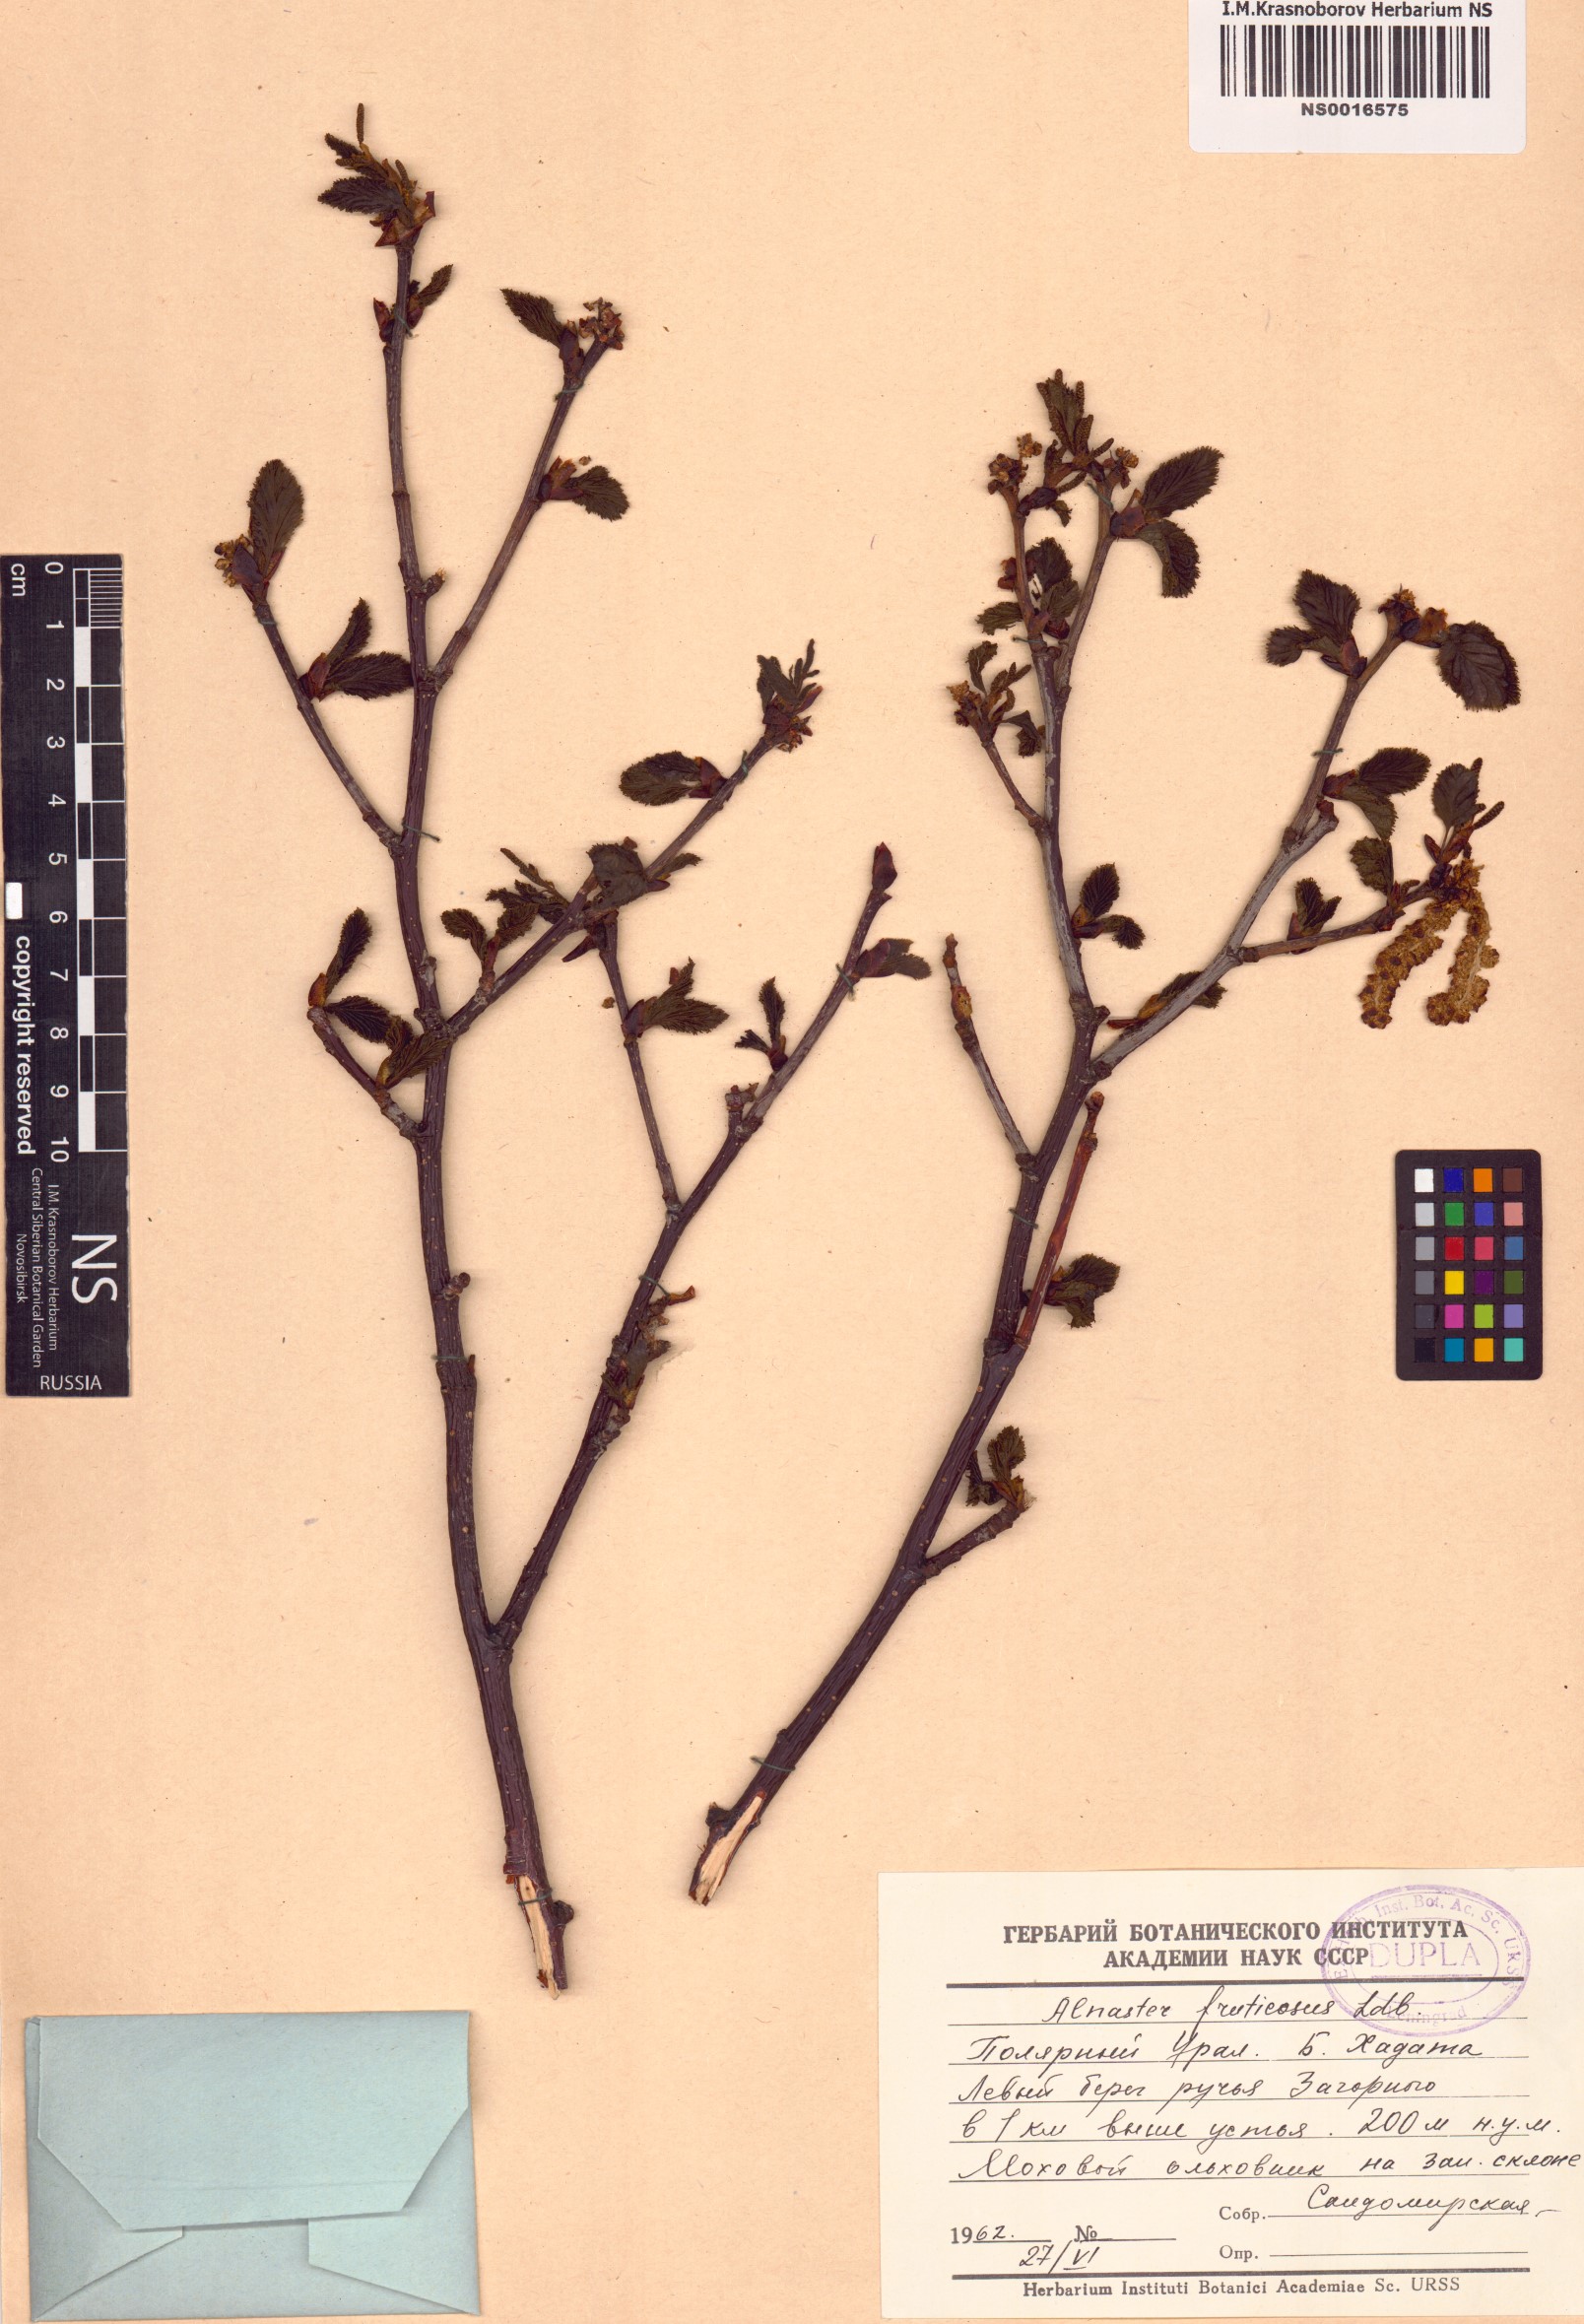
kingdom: Plantae
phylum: Tracheophyta
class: Magnoliopsida
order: Fagales
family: Betulaceae
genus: Alnus
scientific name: Alnus alnobetula
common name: Green alder
